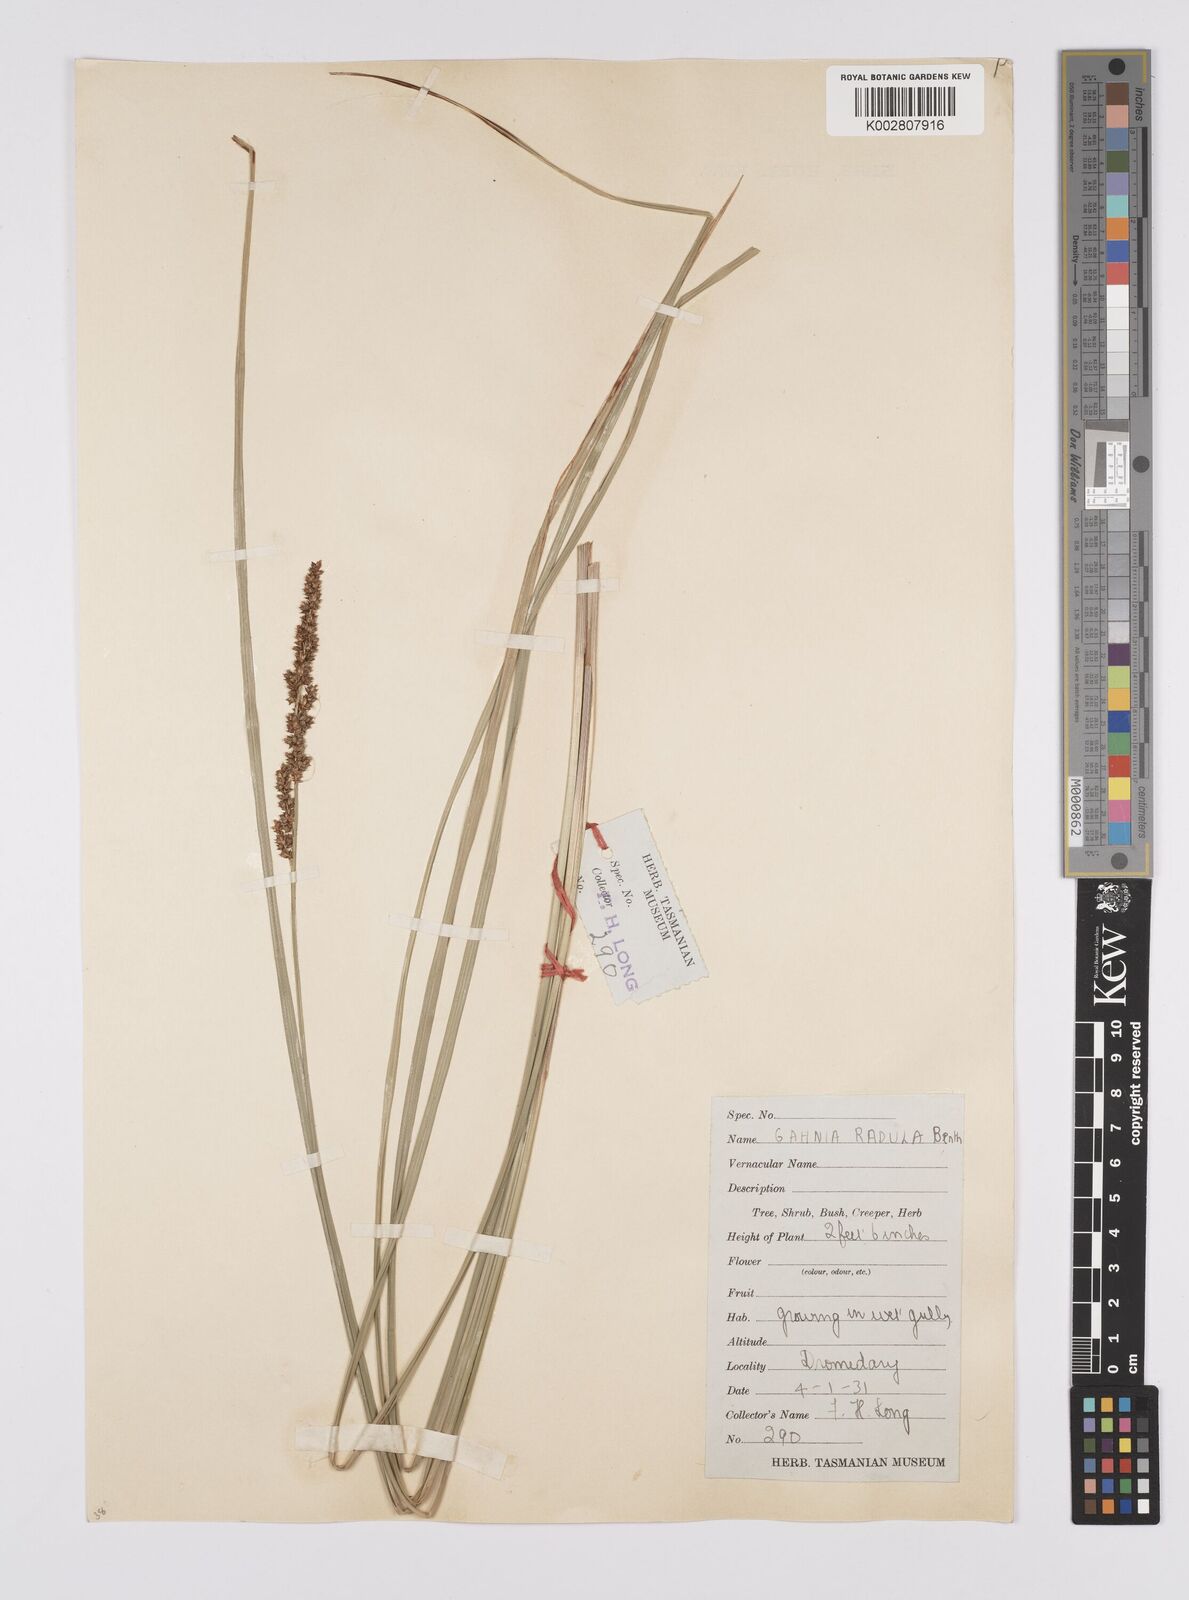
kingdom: Plantae
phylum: Tracheophyta
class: Liliopsida
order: Poales
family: Cyperaceae
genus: Carex
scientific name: Carex appressa
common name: Tussock sedge
